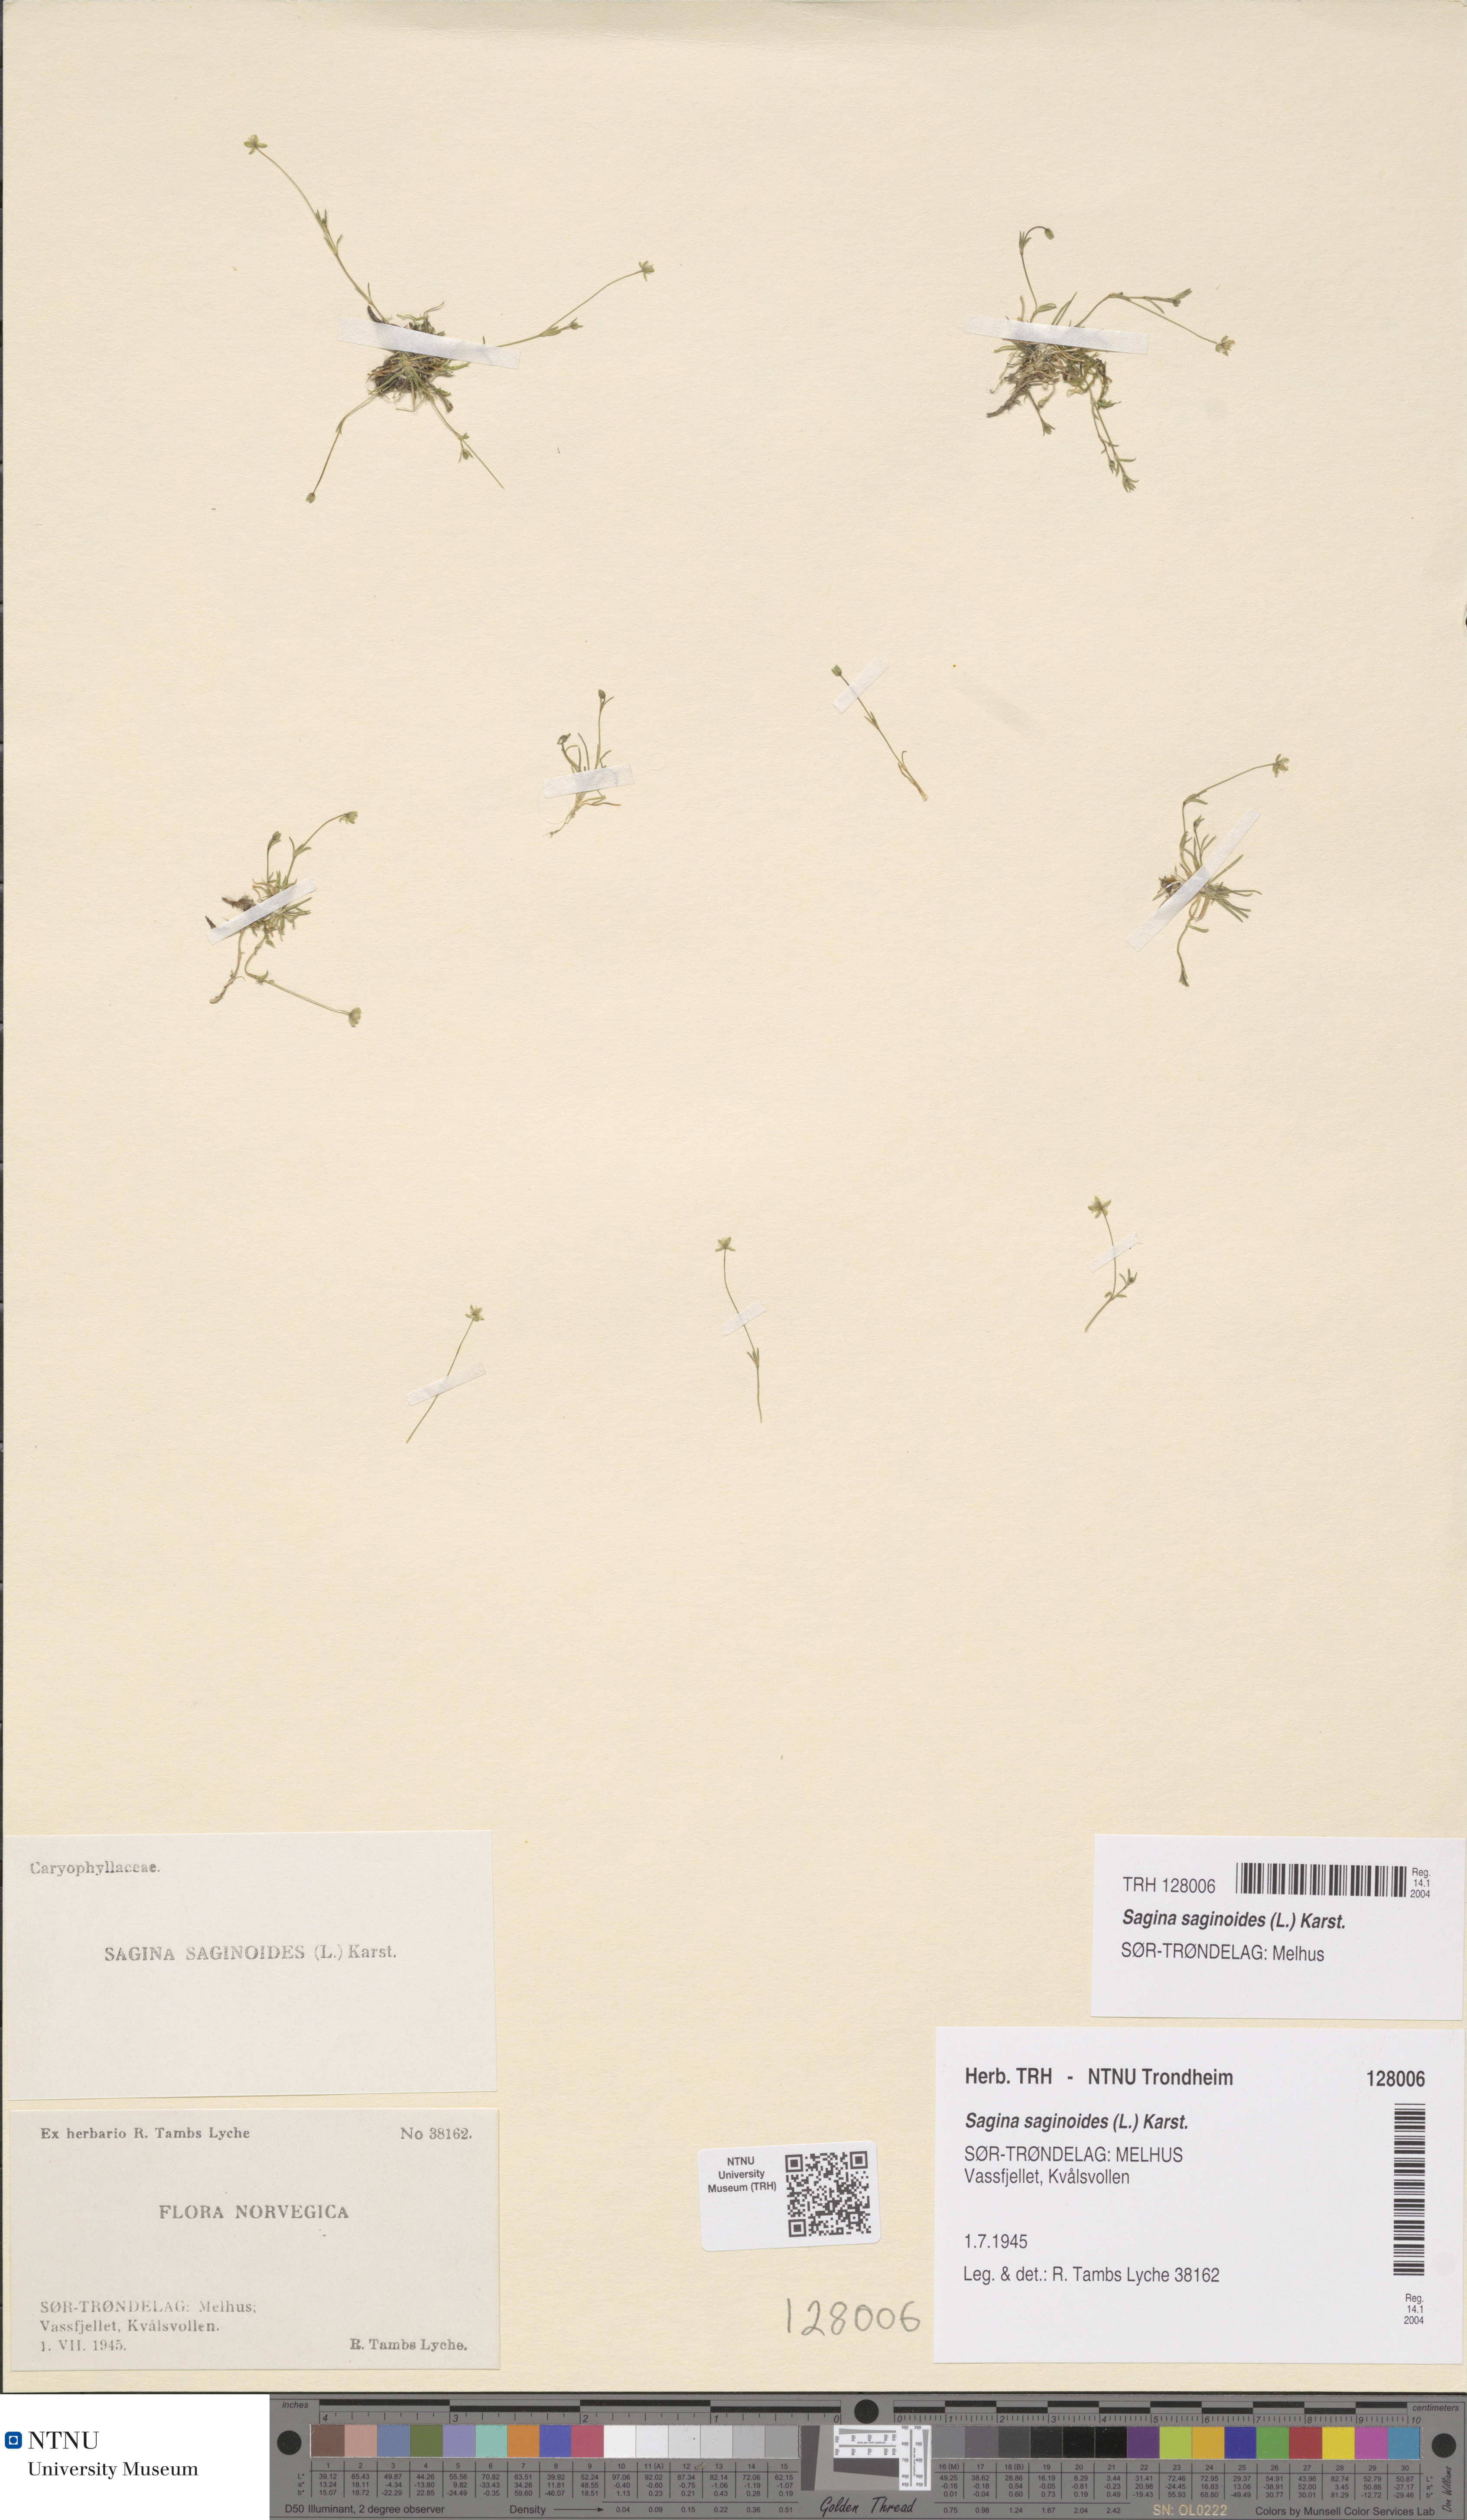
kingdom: Plantae
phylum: Tracheophyta
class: Magnoliopsida
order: Caryophyllales
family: Caryophyllaceae
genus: Sagina
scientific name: Sagina saginoides
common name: Alpine pearlwort
